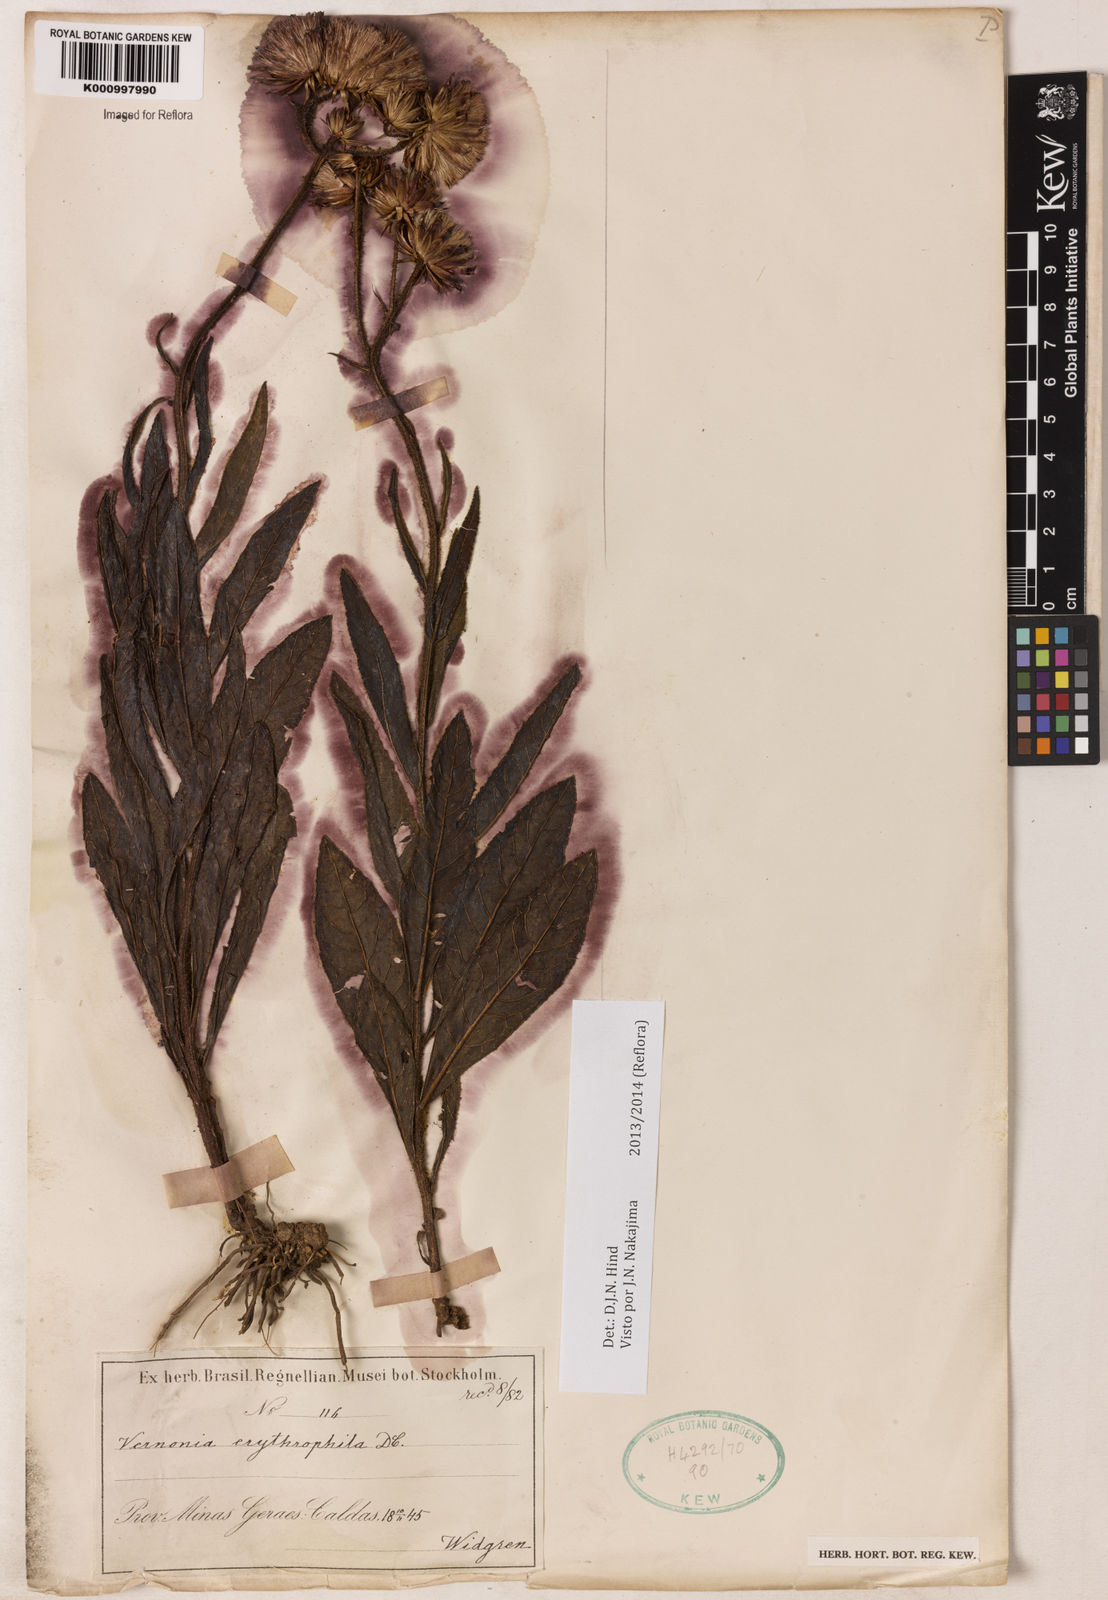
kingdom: Plantae
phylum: Tracheophyta
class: Magnoliopsida
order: Asterales
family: Asteraceae
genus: Lessingianthus
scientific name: Lessingianthus erythrophilus
